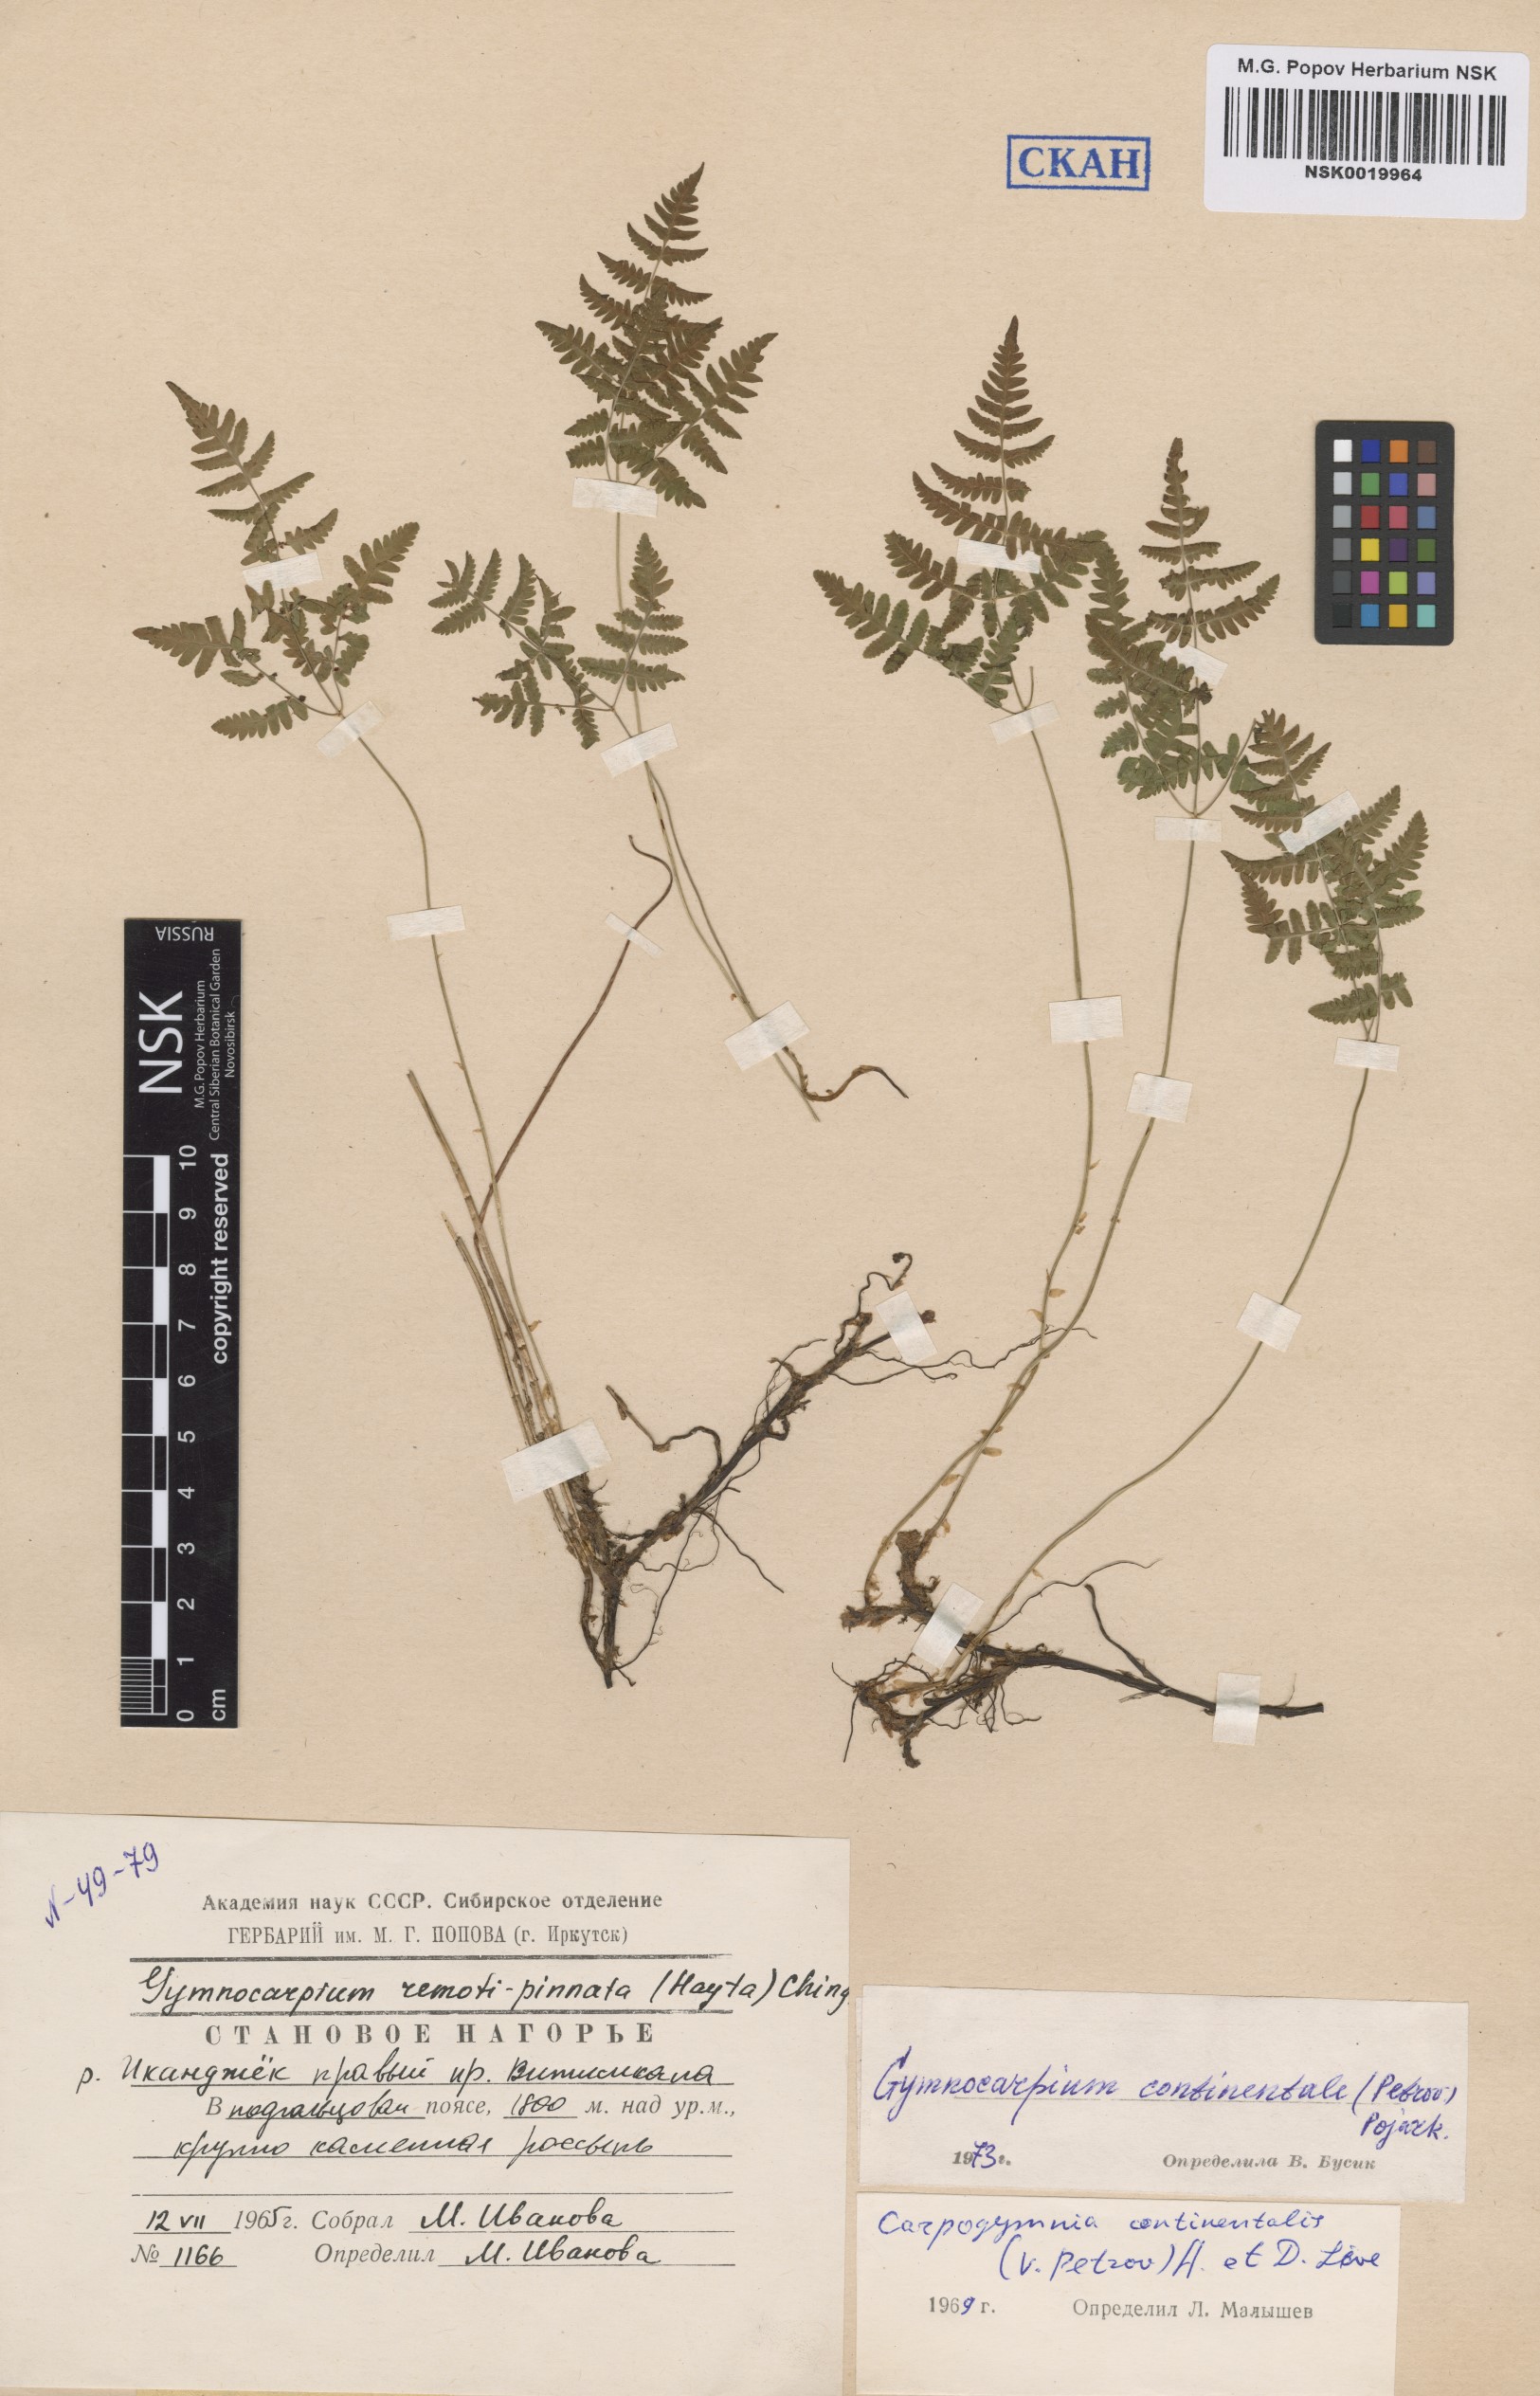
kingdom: Plantae
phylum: Tracheophyta
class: Polypodiopsida
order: Polypodiales
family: Cystopteridaceae
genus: Gymnocarpium
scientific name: Gymnocarpium continentale
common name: Asian oak fern
